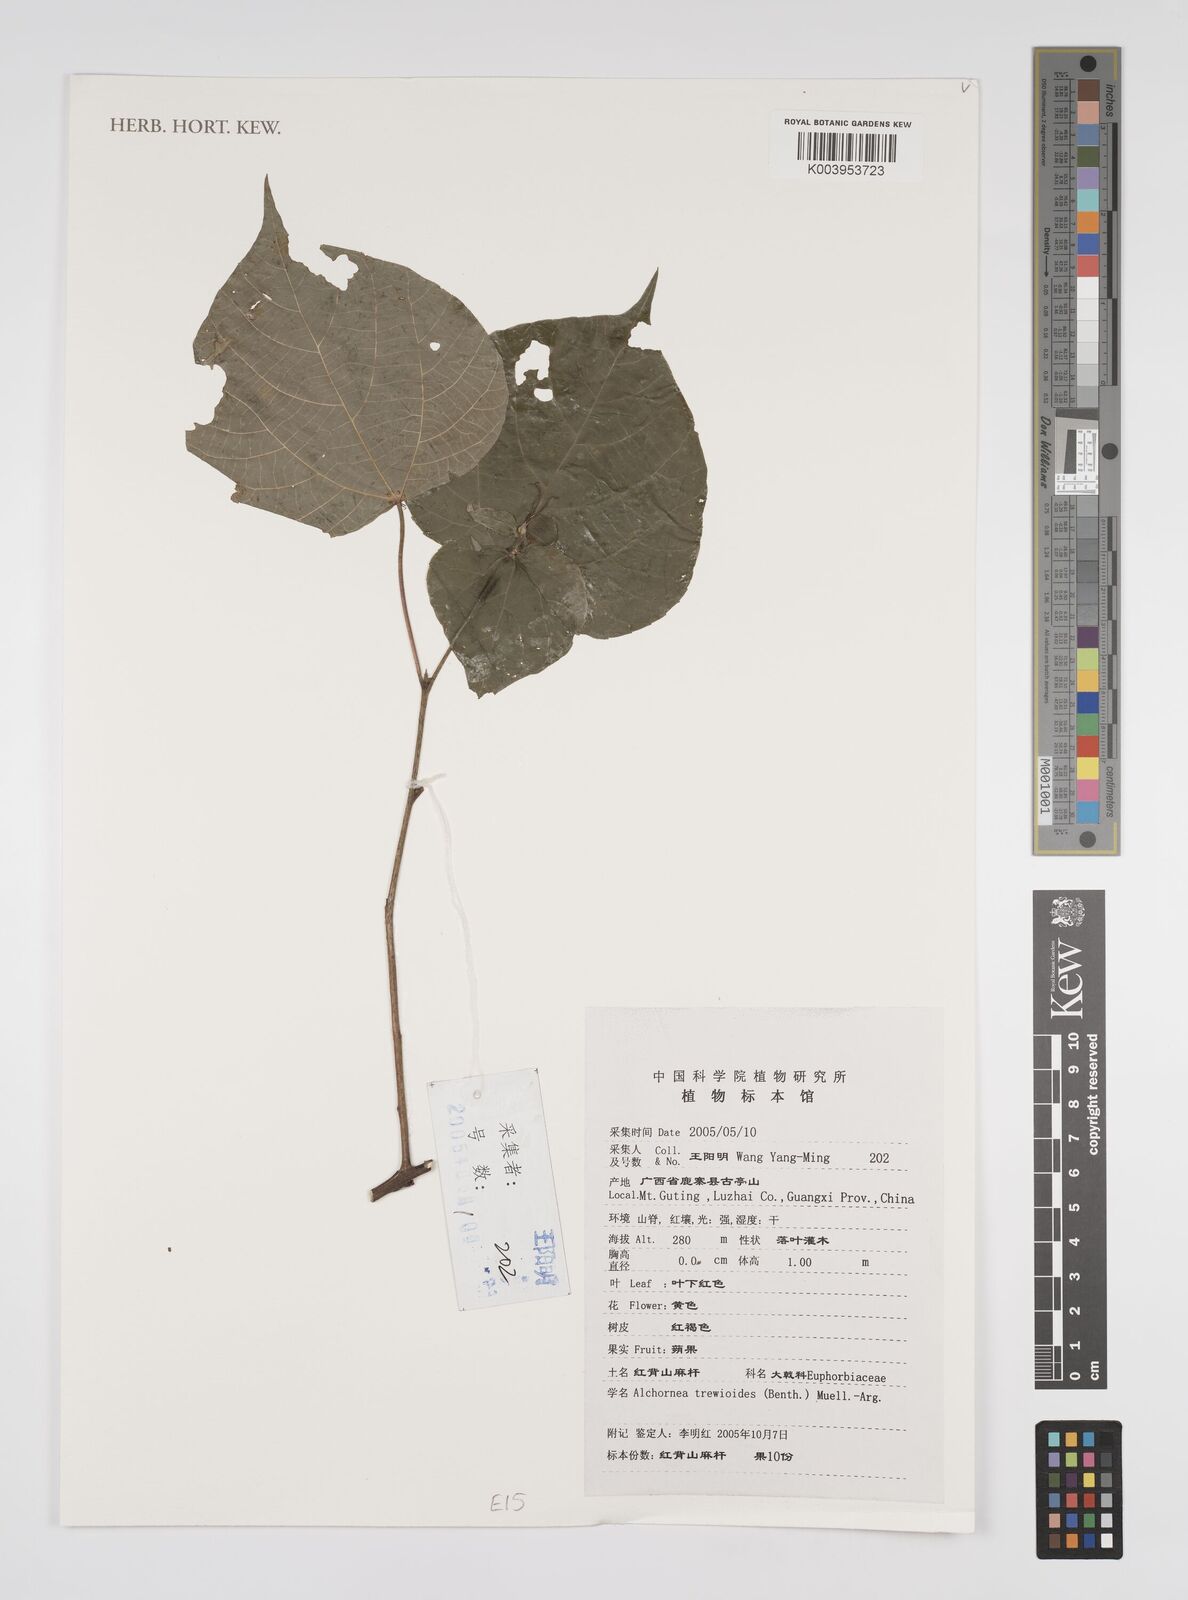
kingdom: Plantae
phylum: Tracheophyta
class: Magnoliopsida
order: Malpighiales
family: Euphorbiaceae
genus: Alchornea
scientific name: Alchornea trewioides
